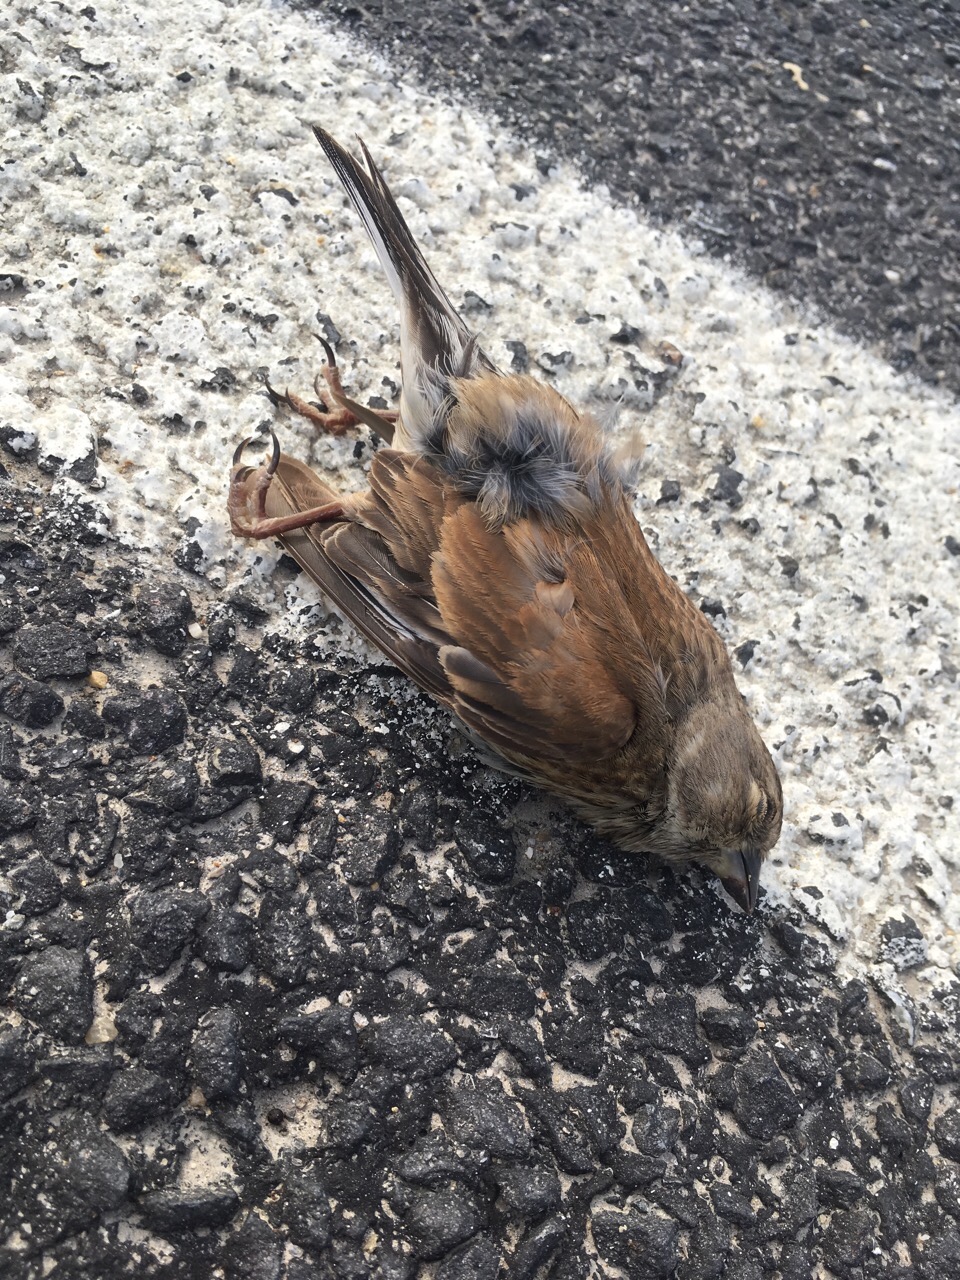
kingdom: Animalia
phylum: Chordata
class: Aves
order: Passeriformes
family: Fringillidae
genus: Linaria
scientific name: Linaria cannabina
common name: Common linnet
